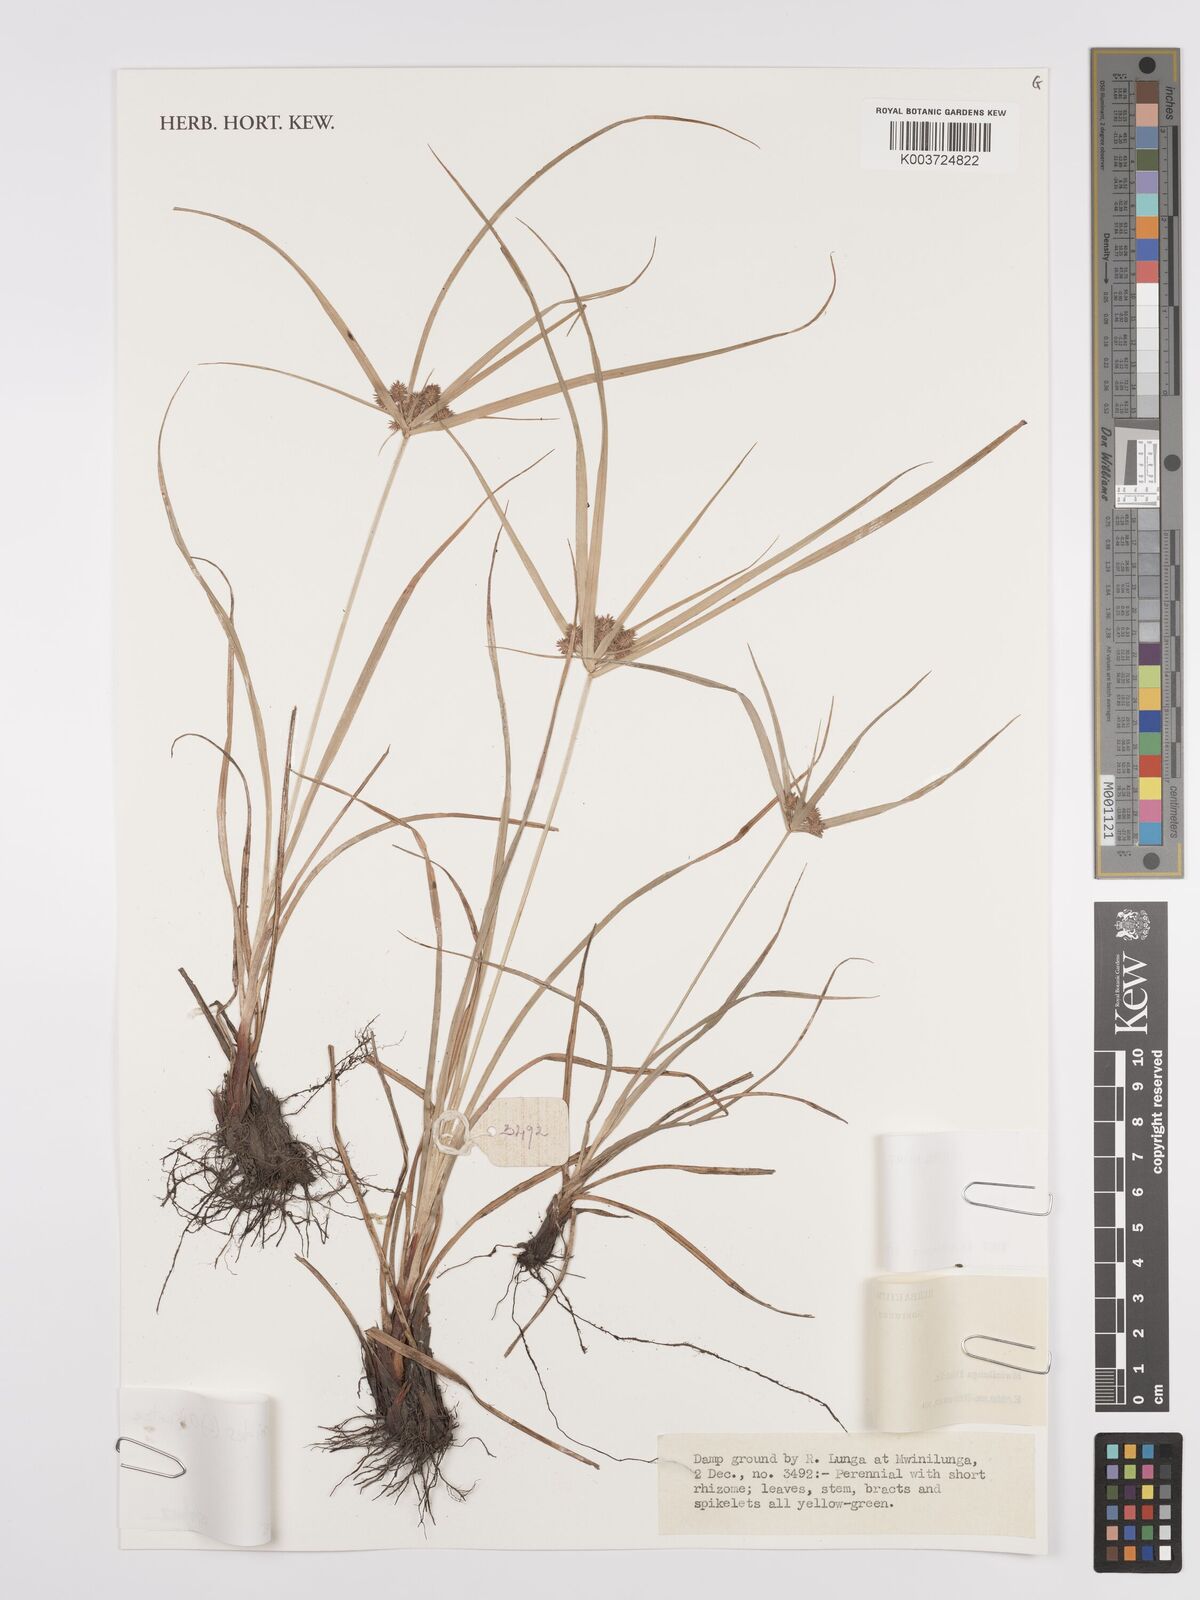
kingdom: Plantae
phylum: Tracheophyta
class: Liliopsida
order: Poales
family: Cyperaceae
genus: Cyperus
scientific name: Cyperus cyperoides
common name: Pacific island flat sedge
